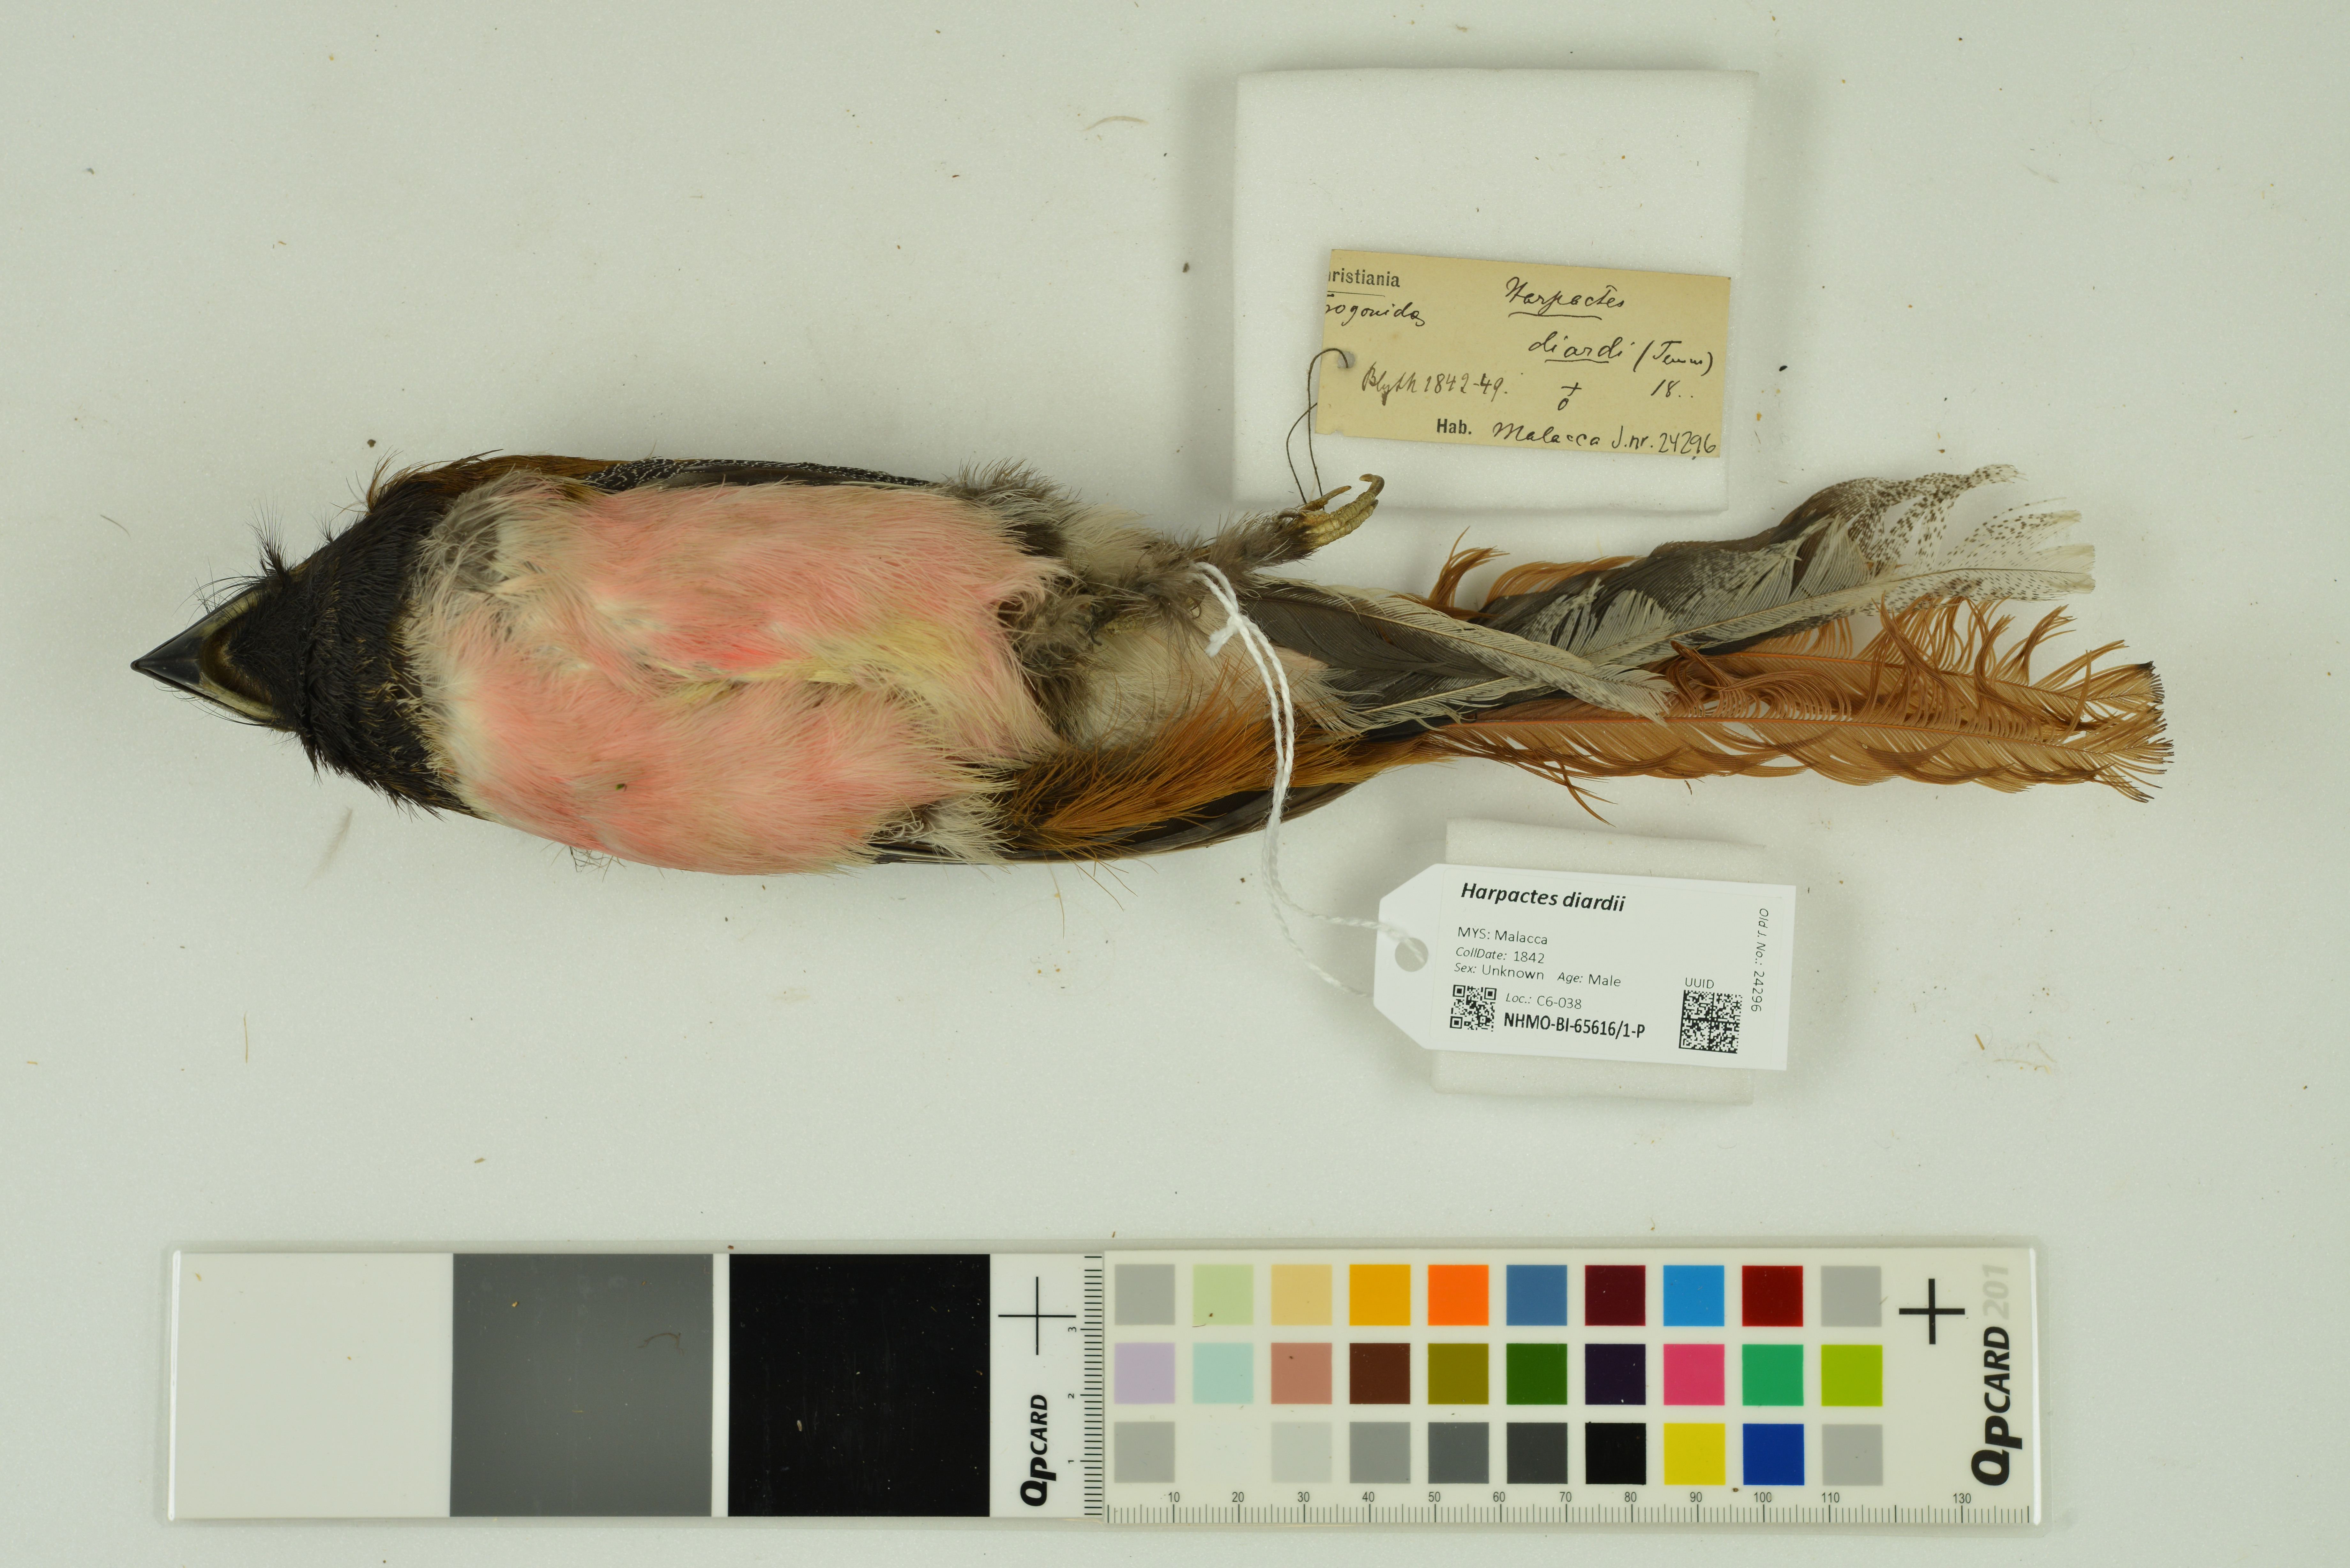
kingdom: Animalia
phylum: Chordata
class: Aves
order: Trogoniformes
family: Trogonidae
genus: Harpactes
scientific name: Harpactes diardii
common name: Diard's trogon
